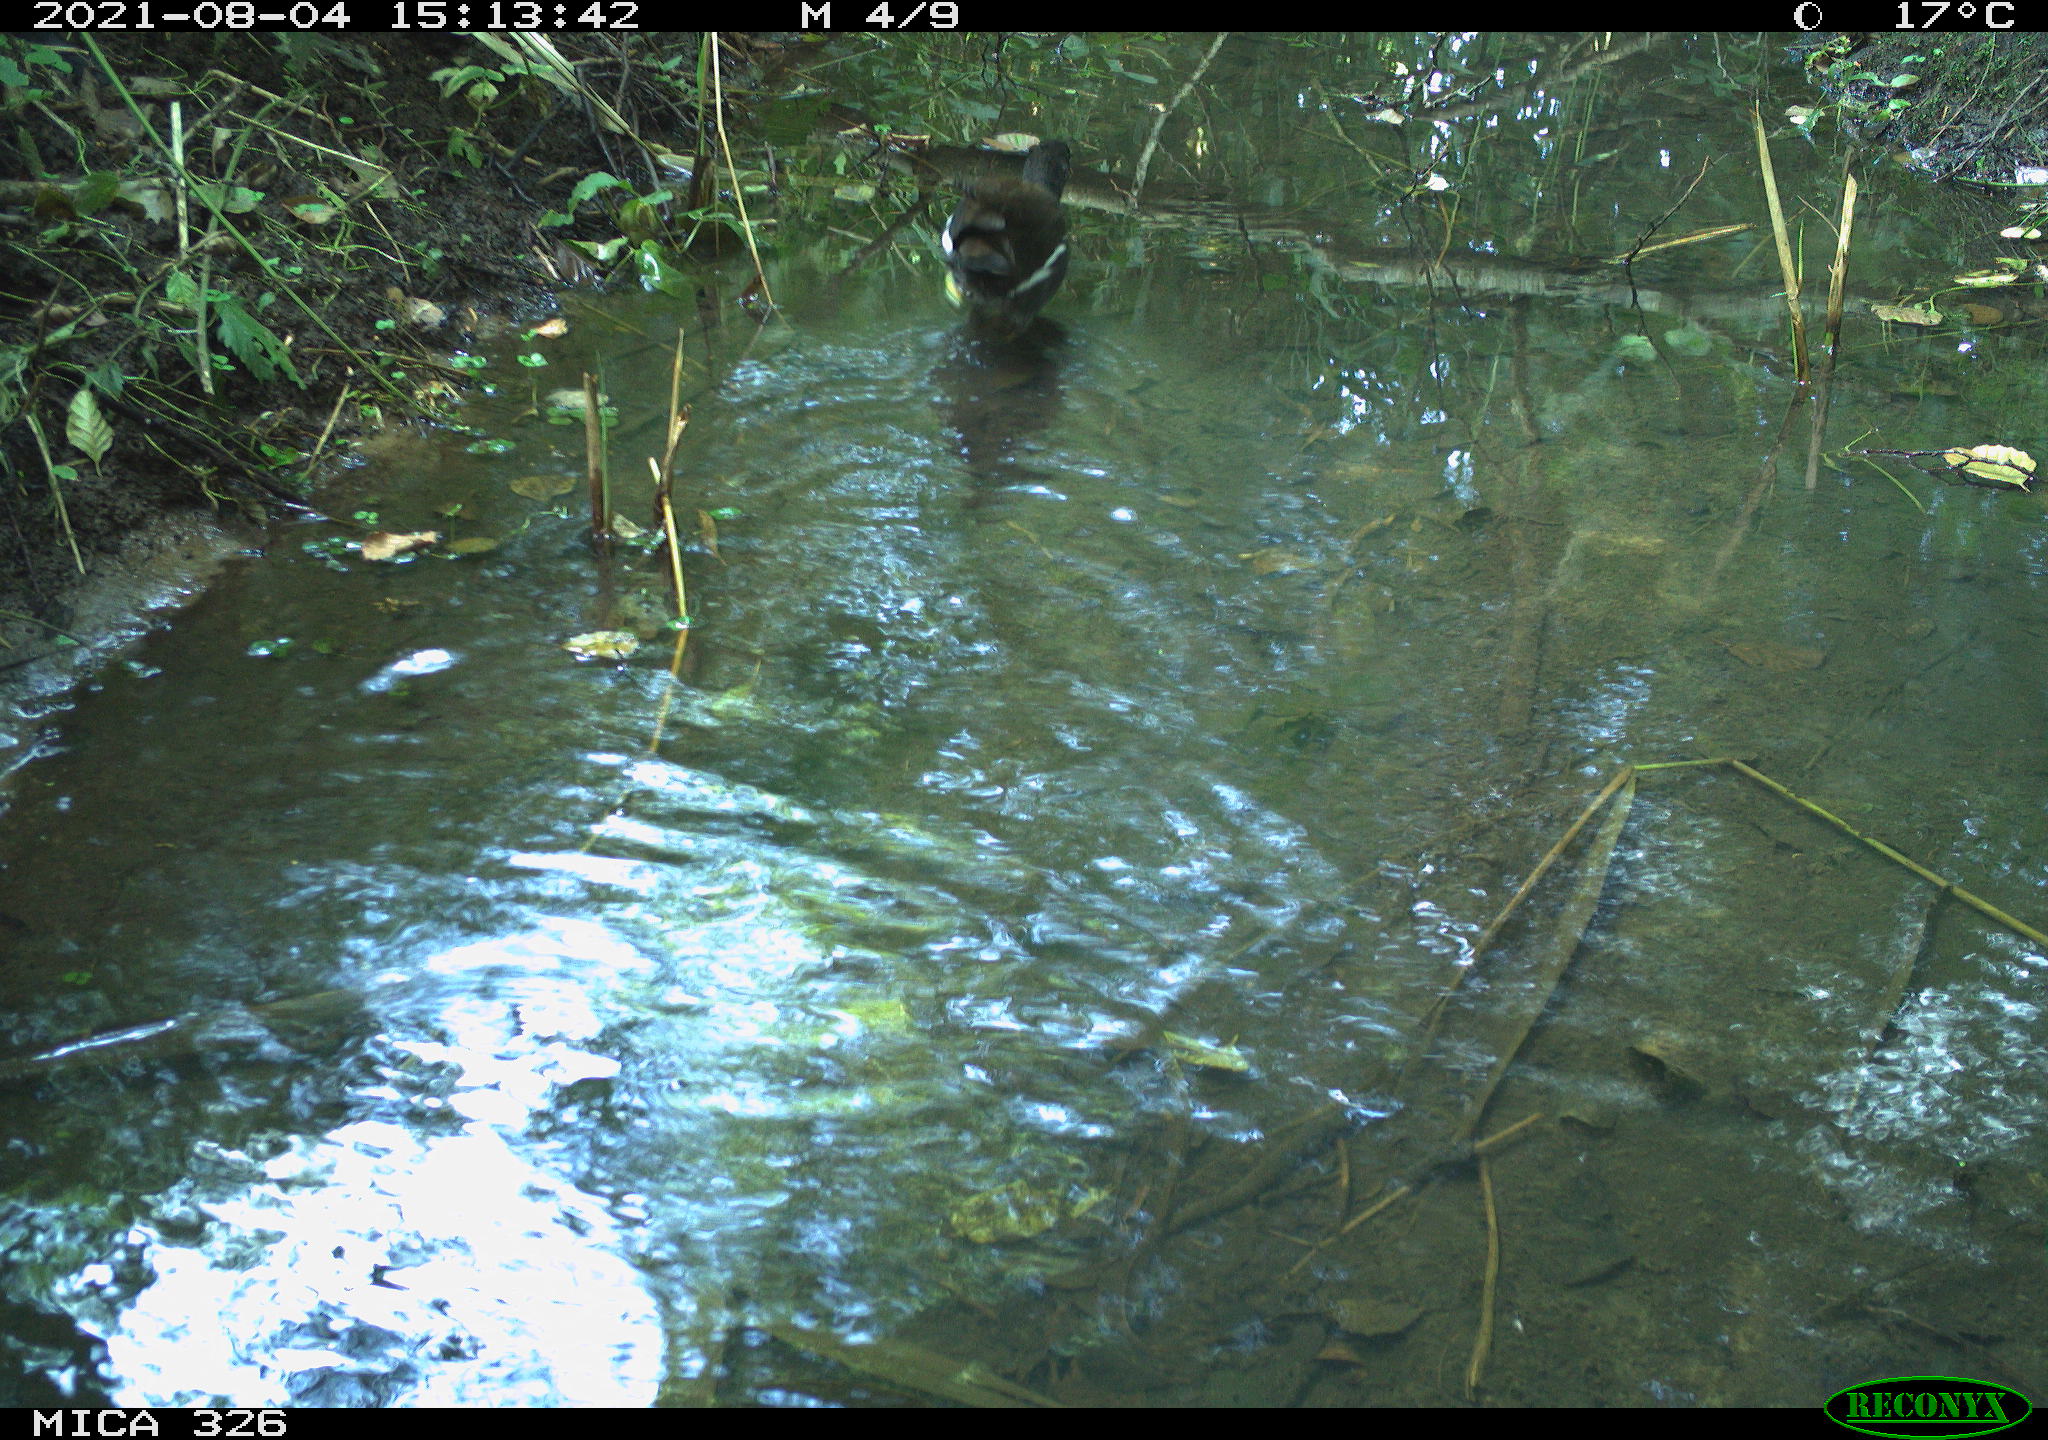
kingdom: Animalia
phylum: Chordata
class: Aves
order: Gruiformes
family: Rallidae
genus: Gallinula
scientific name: Gallinula chloropus
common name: Common moorhen
